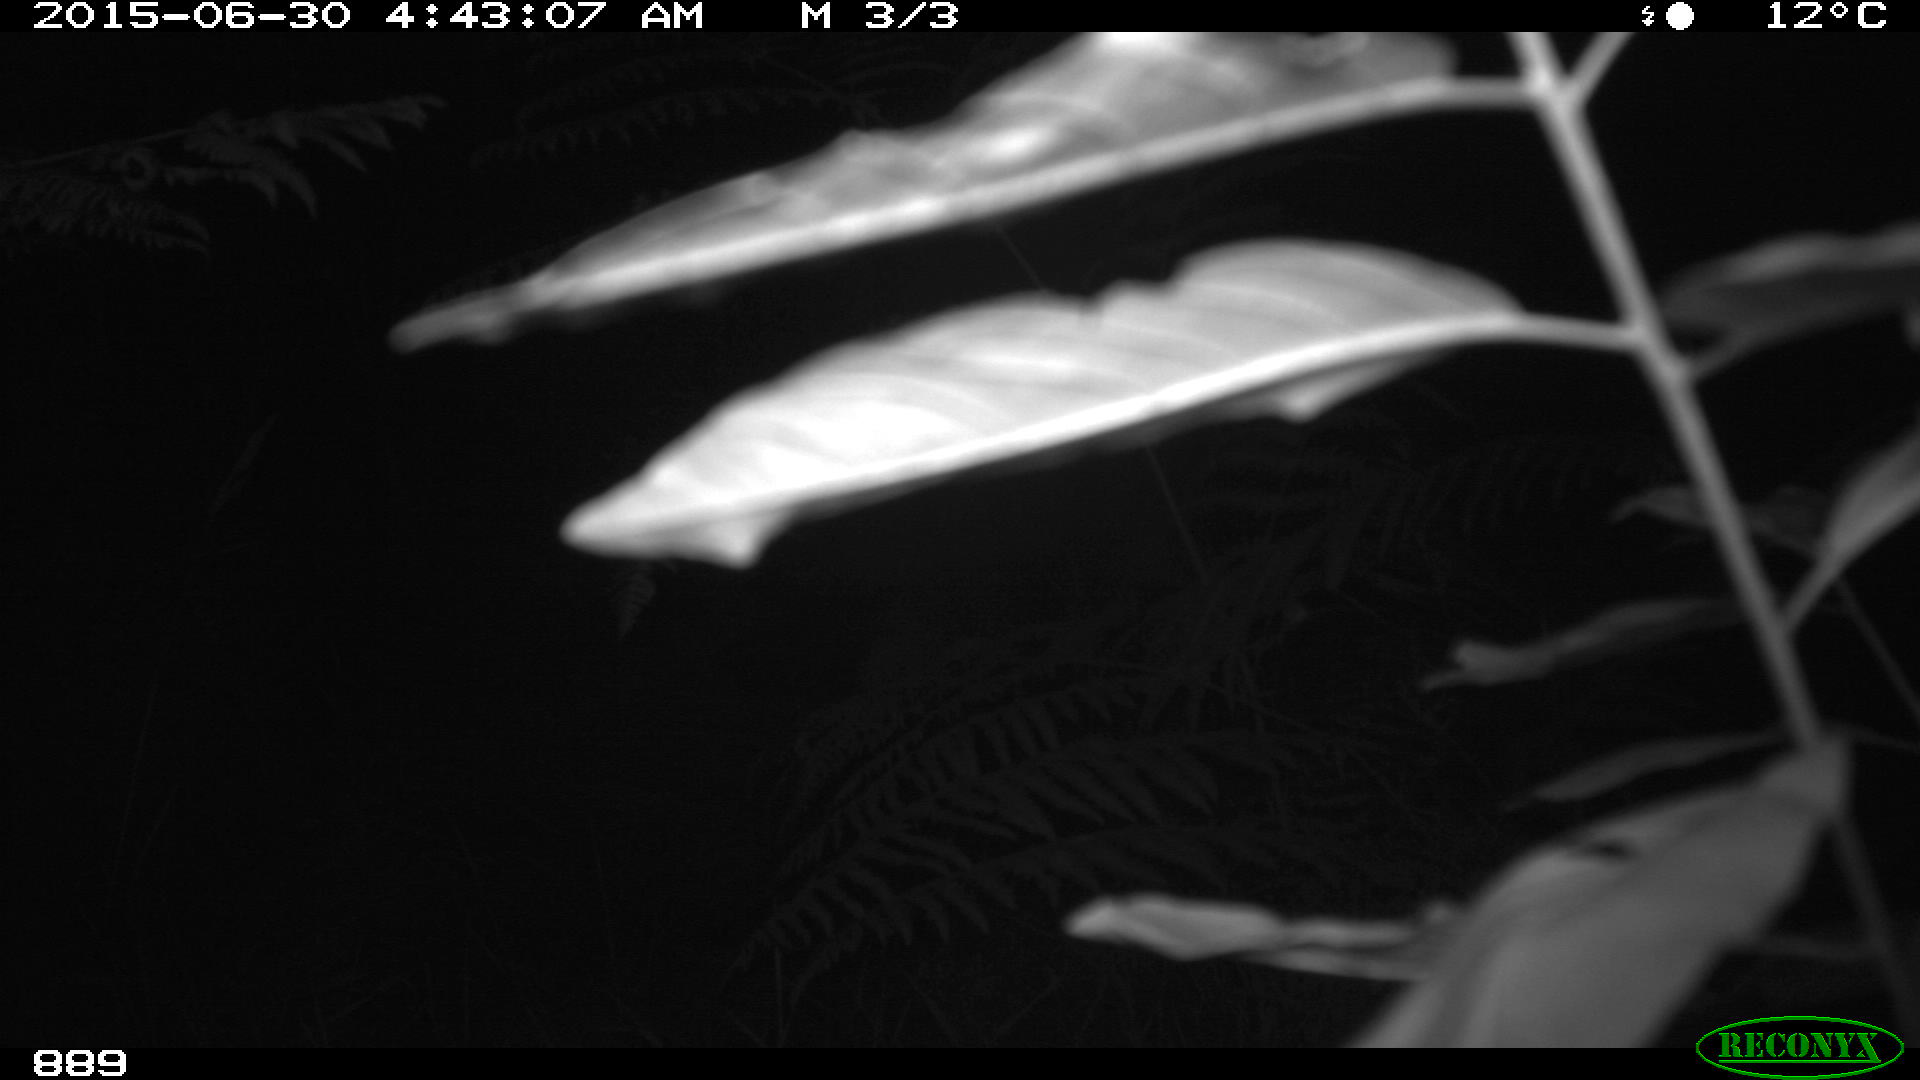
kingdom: Animalia
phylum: Chordata
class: Mammalia
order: Carnivora
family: Canidae
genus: Vulpes
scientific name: Vulpes vulpes
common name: Red fox
